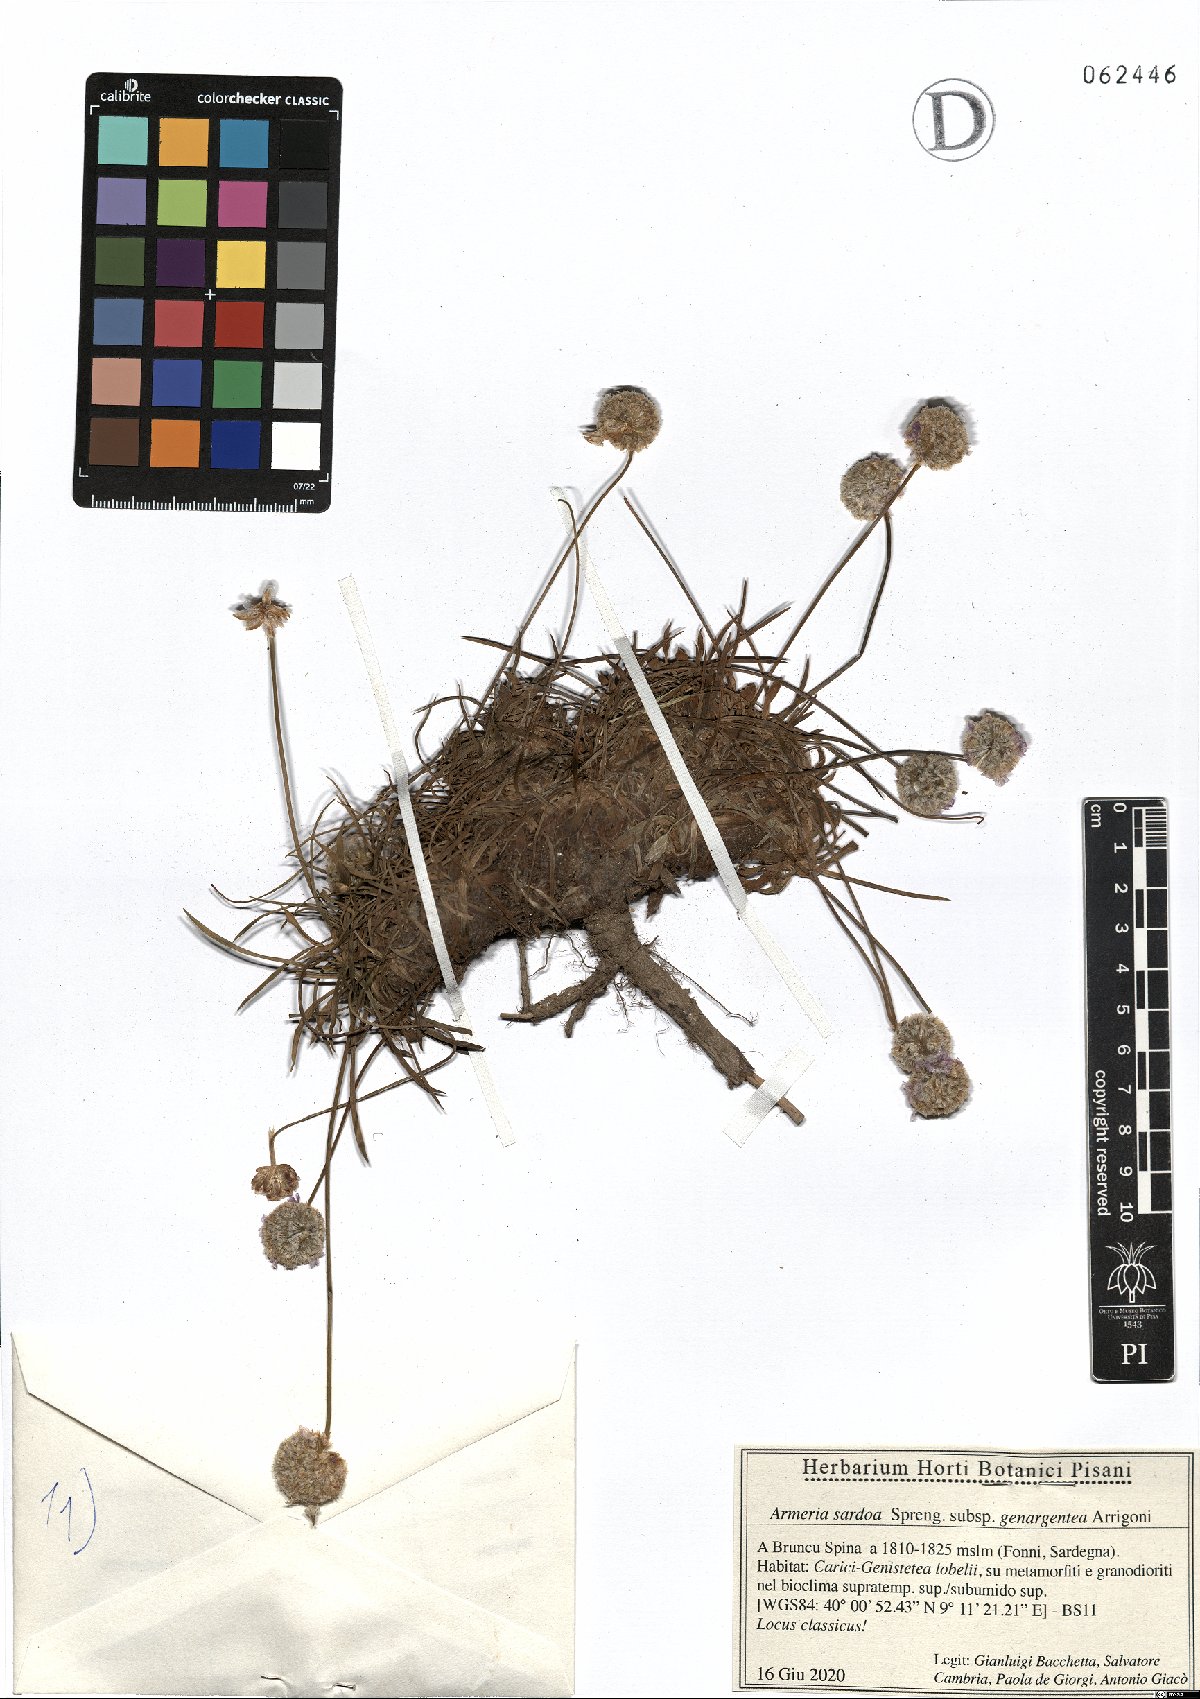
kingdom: Plantae
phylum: Tracheophyta
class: Magnoliopsida
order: Caryophyllales
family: Plumbaginaceae
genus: Armeria
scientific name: Armeria sardoa
